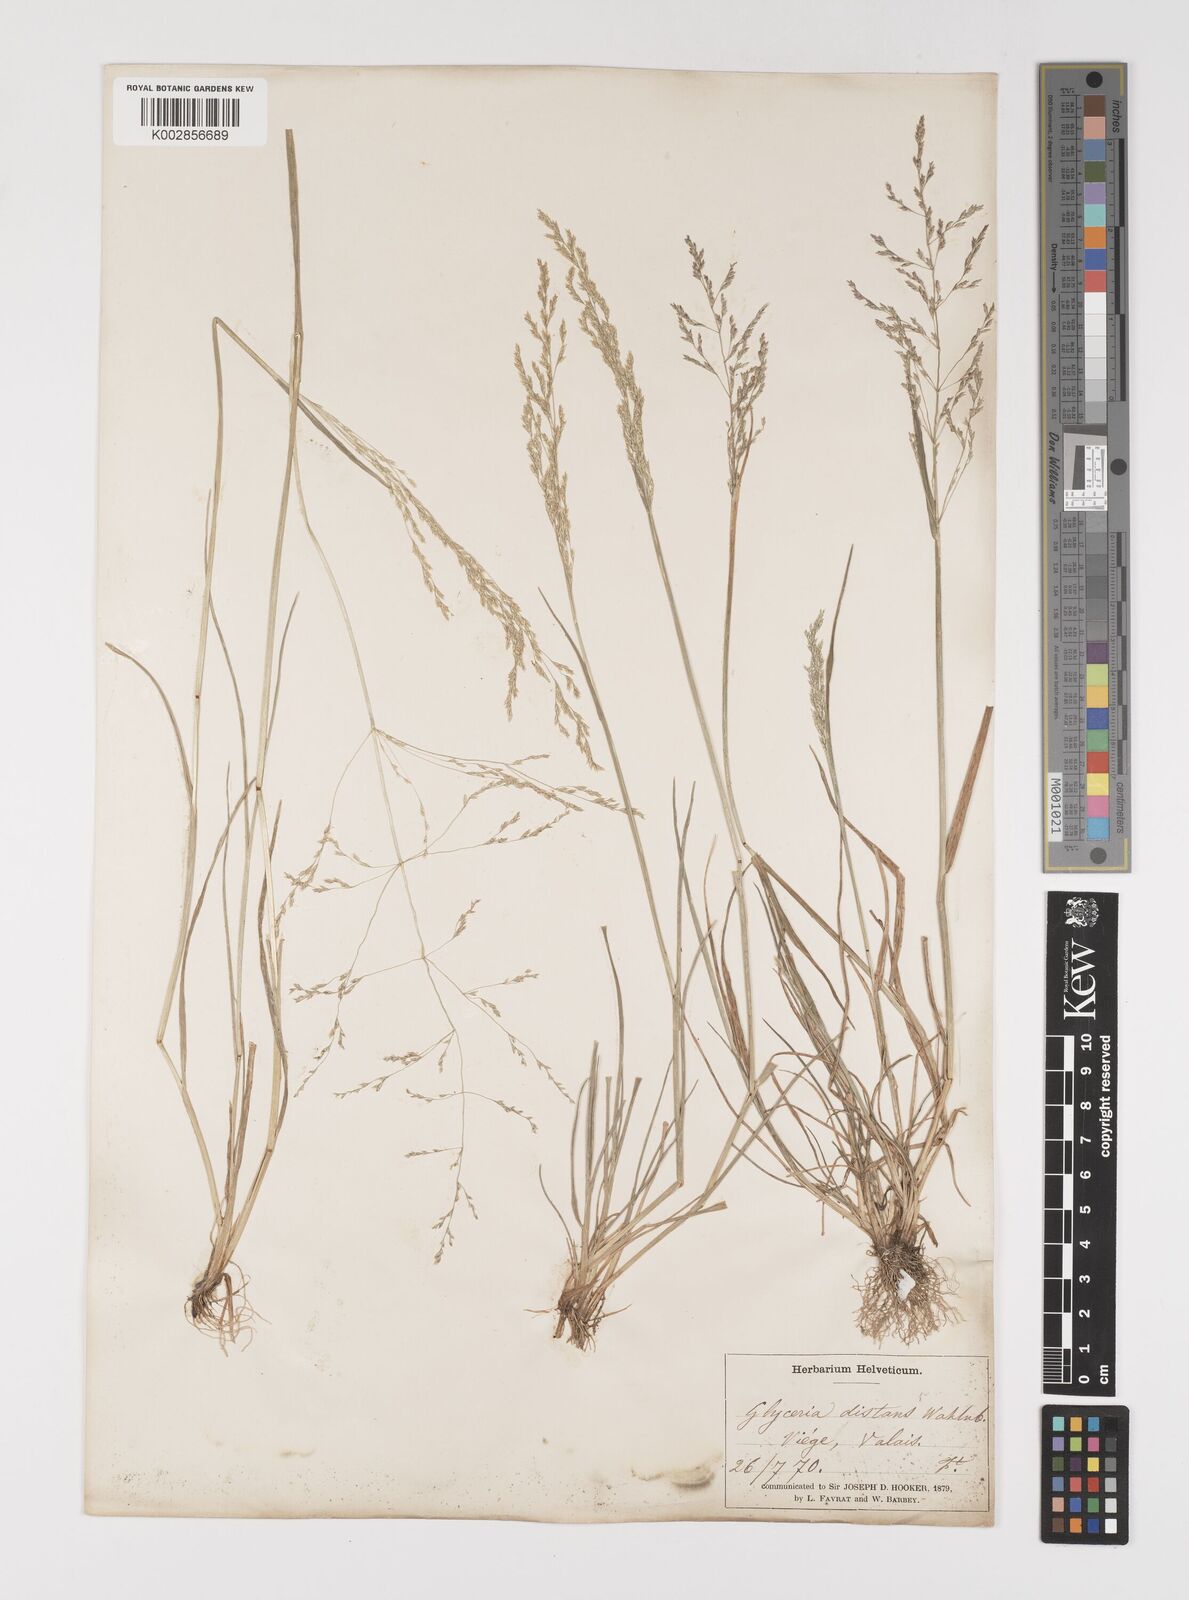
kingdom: Plantae
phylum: Tracheophyta
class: Liliopsida
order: Poales
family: Poaceae
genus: Puccinellia
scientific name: Puccinellia
